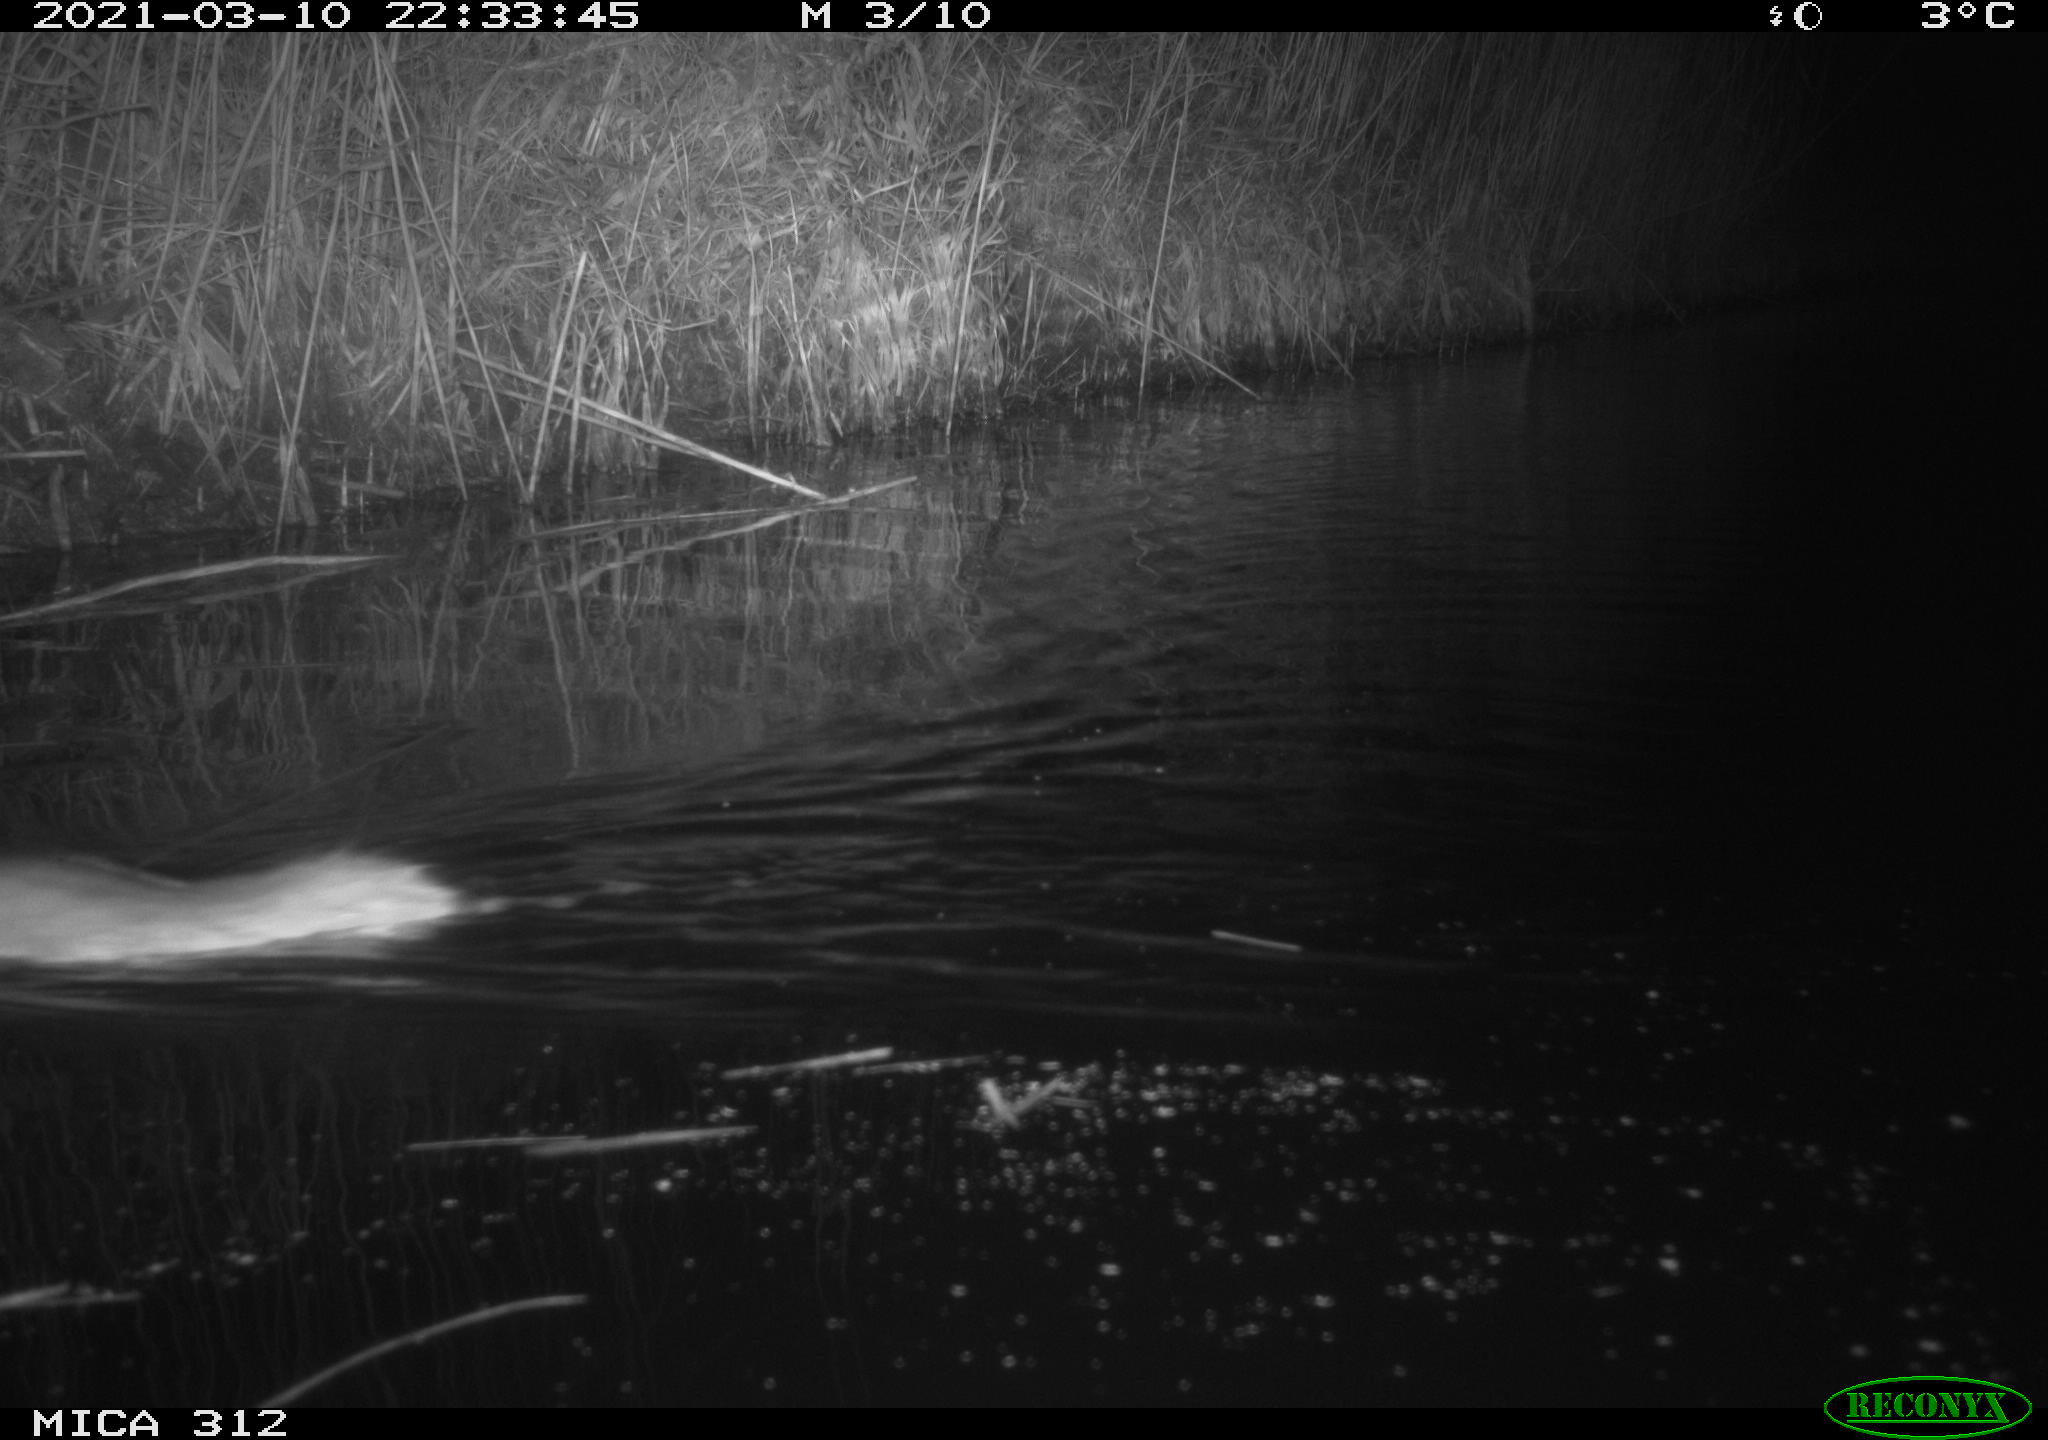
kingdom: Animalia
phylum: Chordata
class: Mammalia
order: Rodentia
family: Muridae
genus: Rattus
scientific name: Rattus norvegicus
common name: Brown rat
